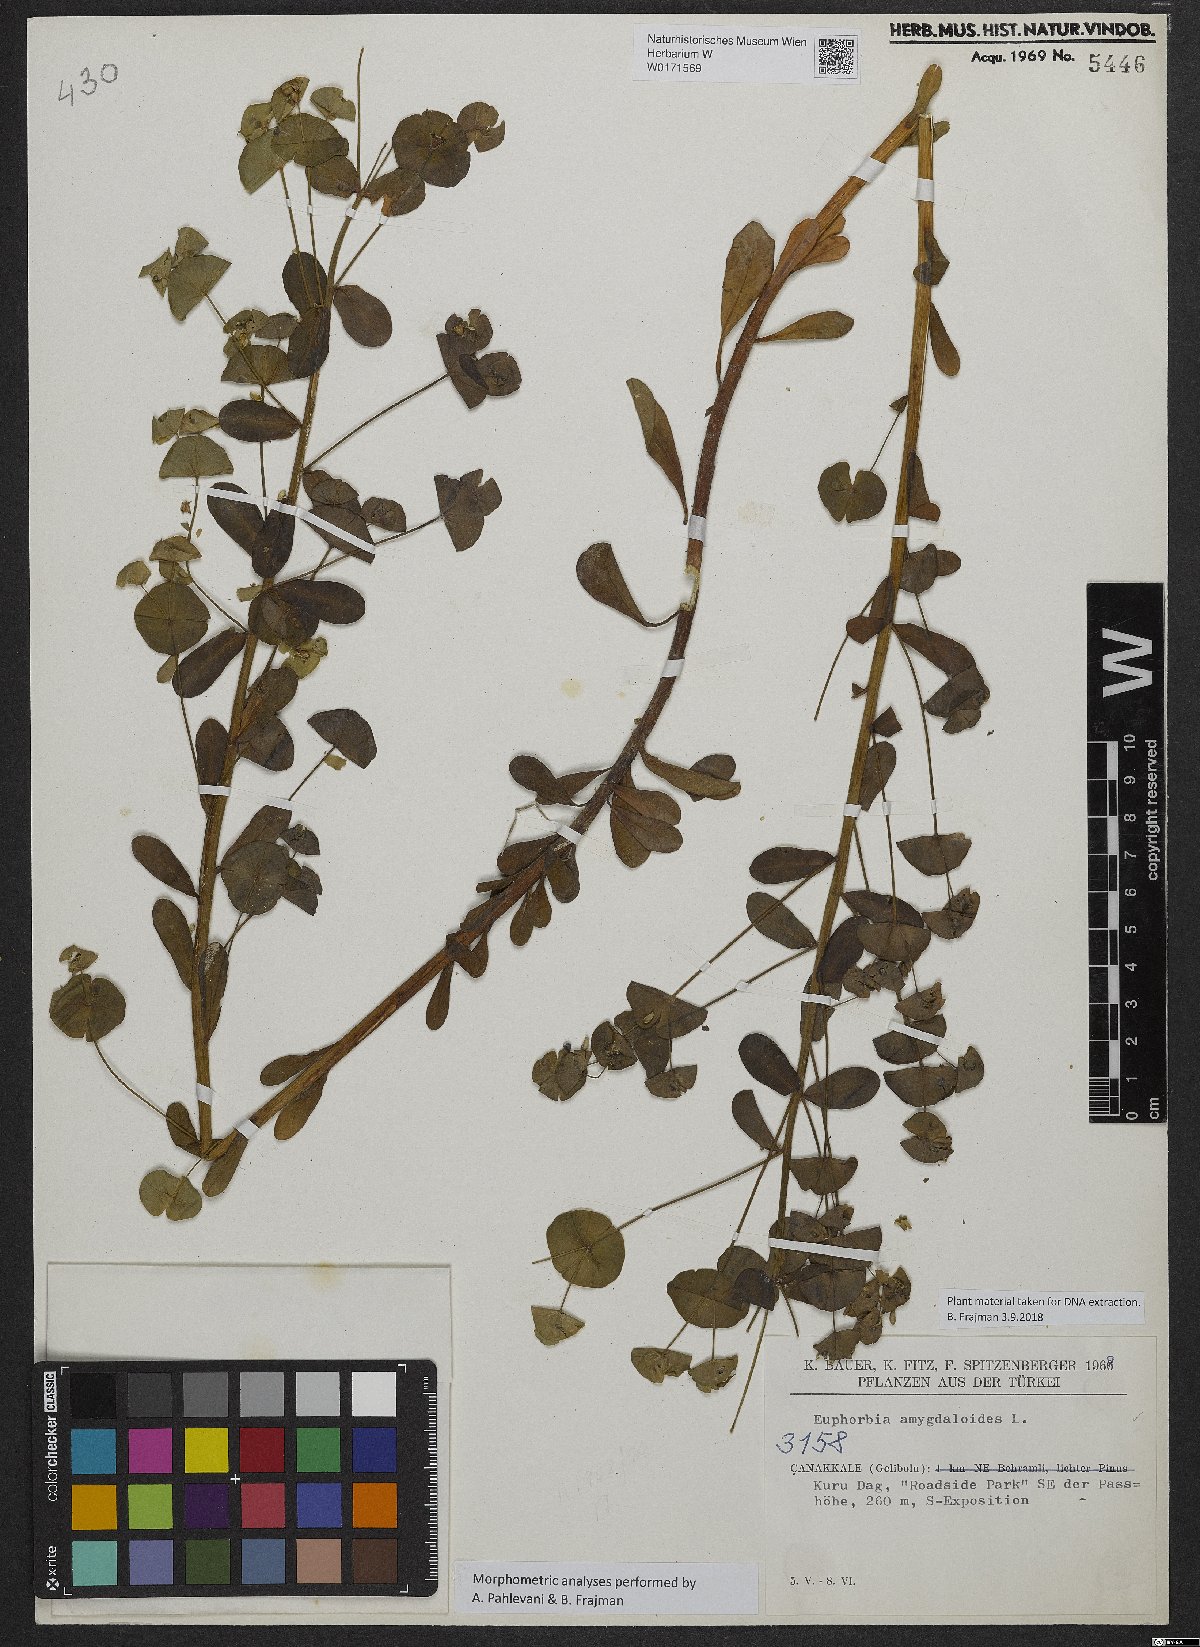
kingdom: Plantae
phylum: Tracheophyta
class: Magnoliopsida
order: Malpighiales
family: Euphorbiaceae
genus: Euphorbia
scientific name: Euphorbia amygdaloides
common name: Wood spurge
